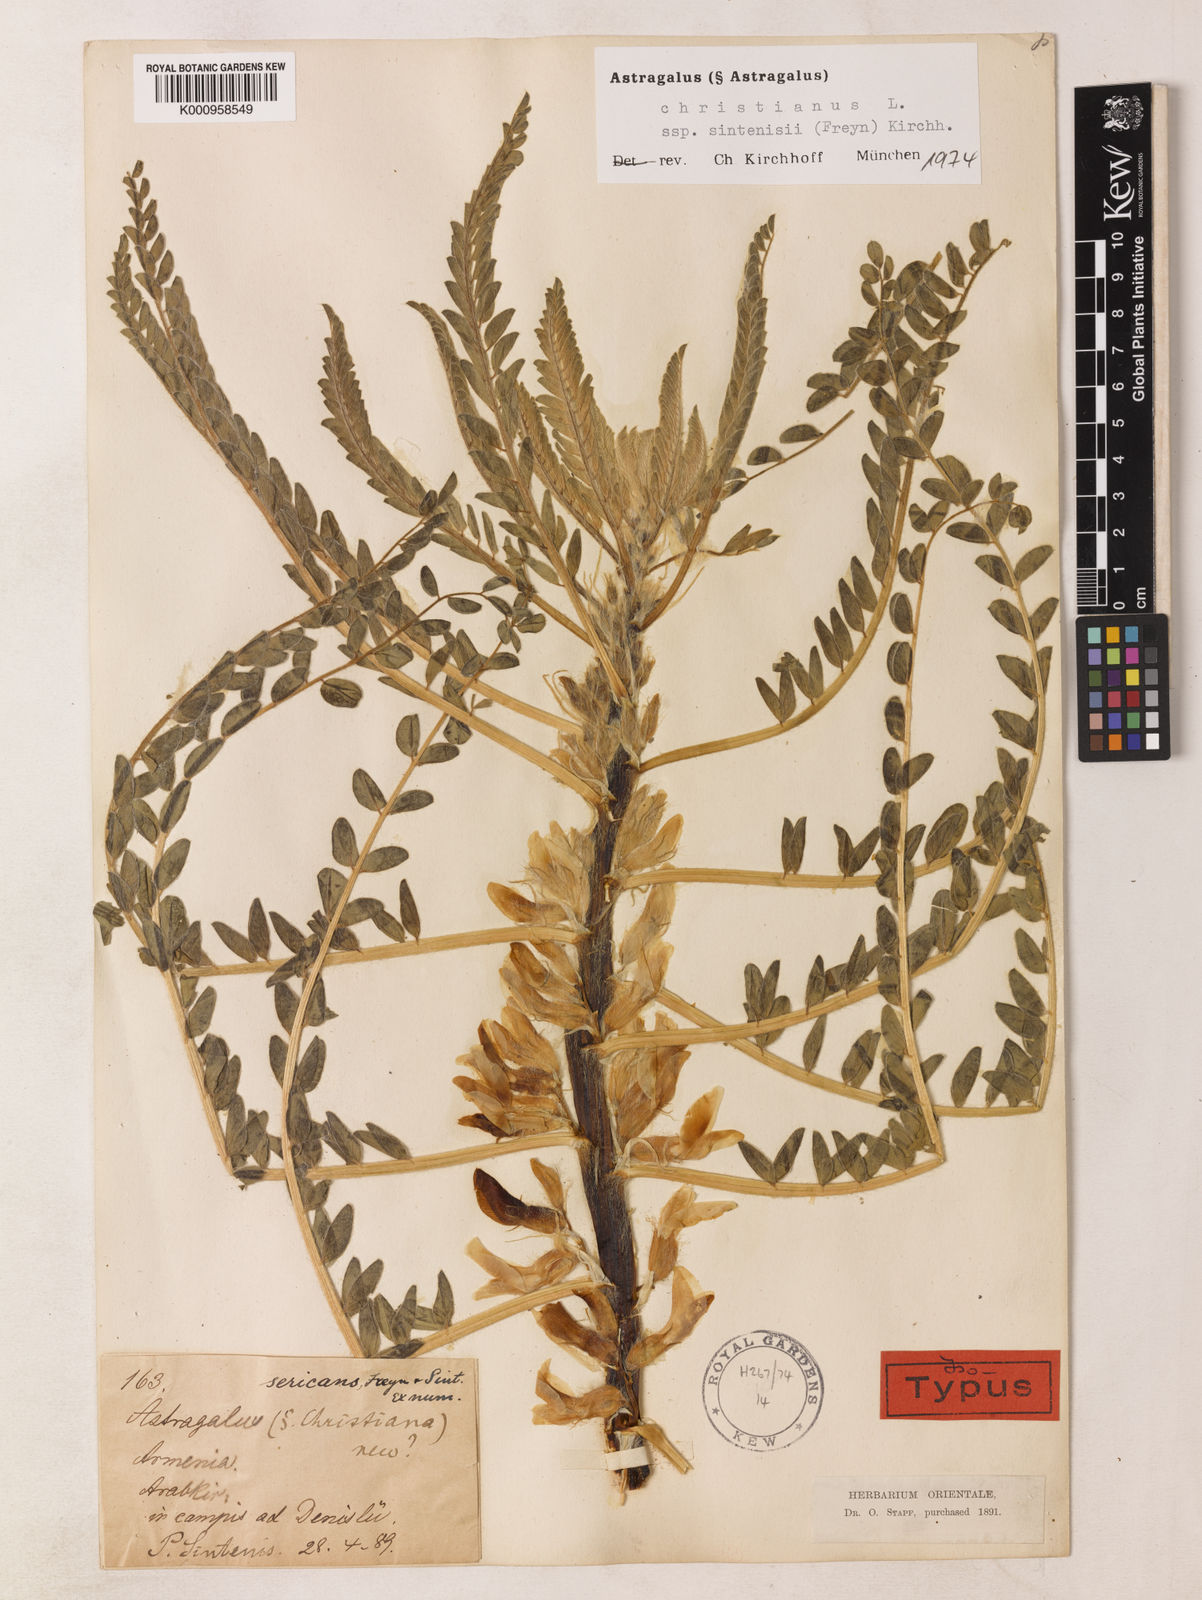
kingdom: Plantae
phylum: Tracheophyta
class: Magnoliopsida
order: Fabales
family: Fabaceae
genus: Astragalus
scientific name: Astragalus christianus
